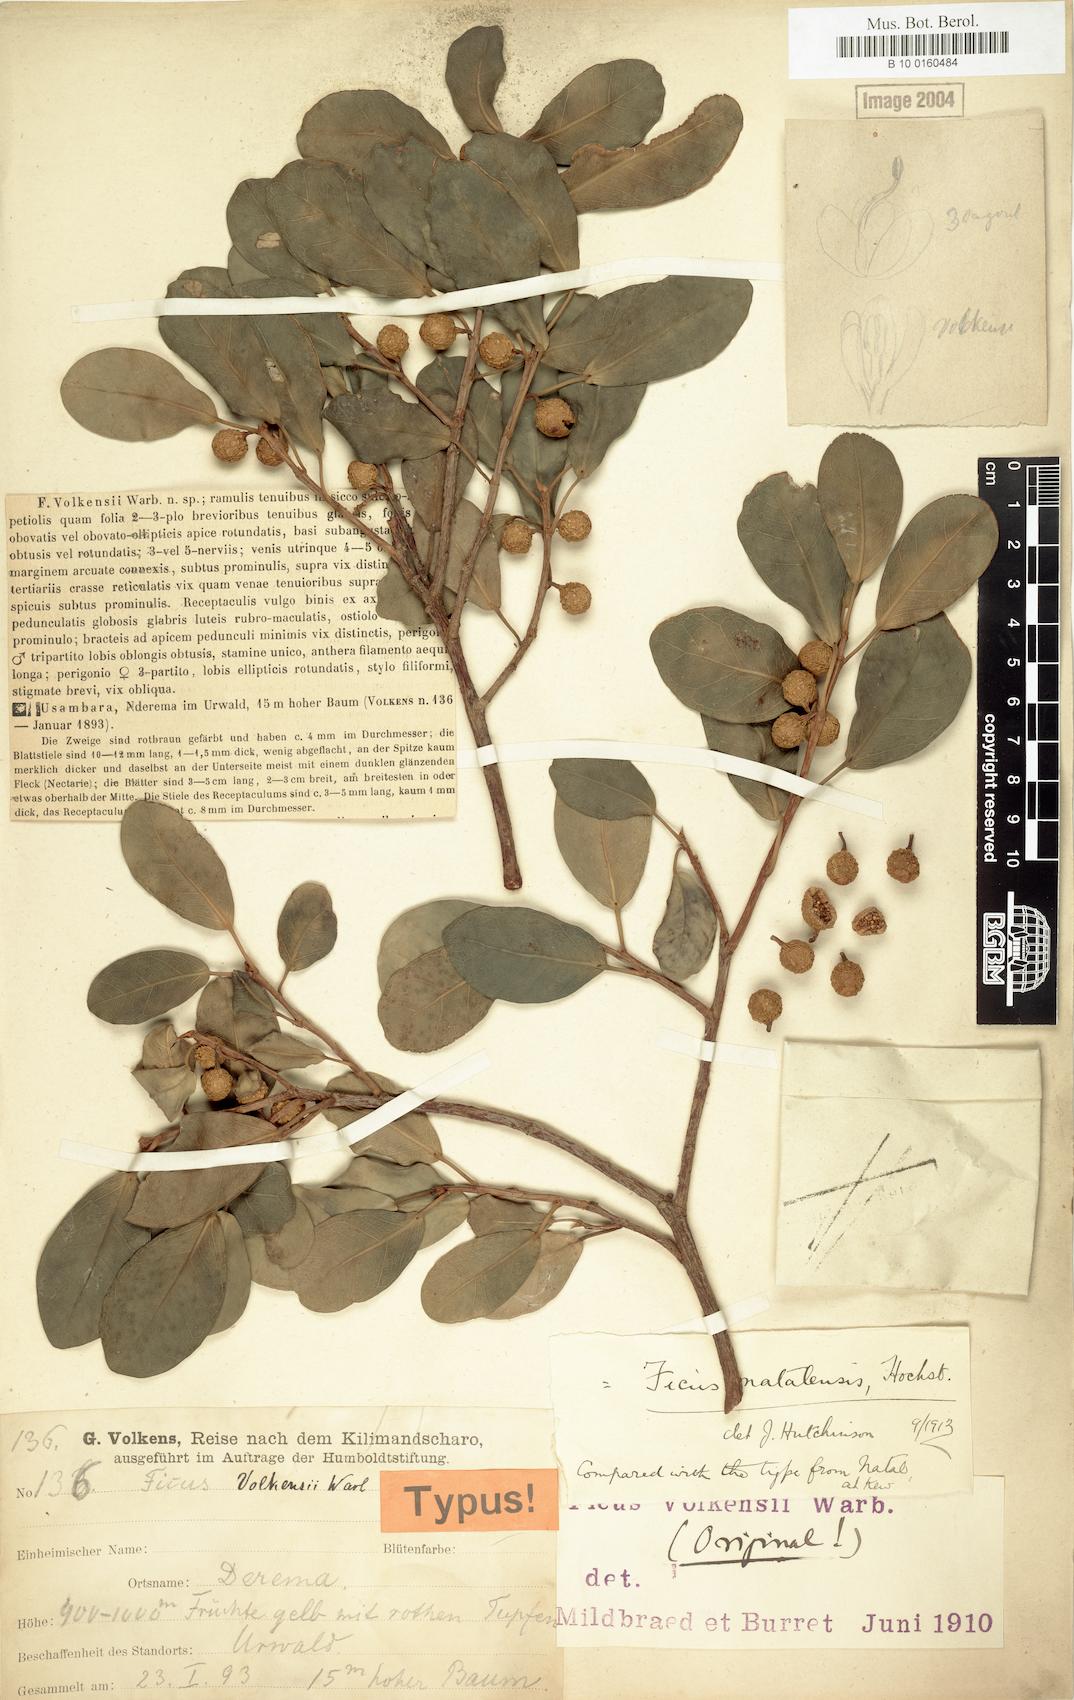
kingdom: Plantae
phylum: Tracheophyta
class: Magnoliopsida
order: Rosales
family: Moraceae
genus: Ficus
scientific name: Ficus natalensis
